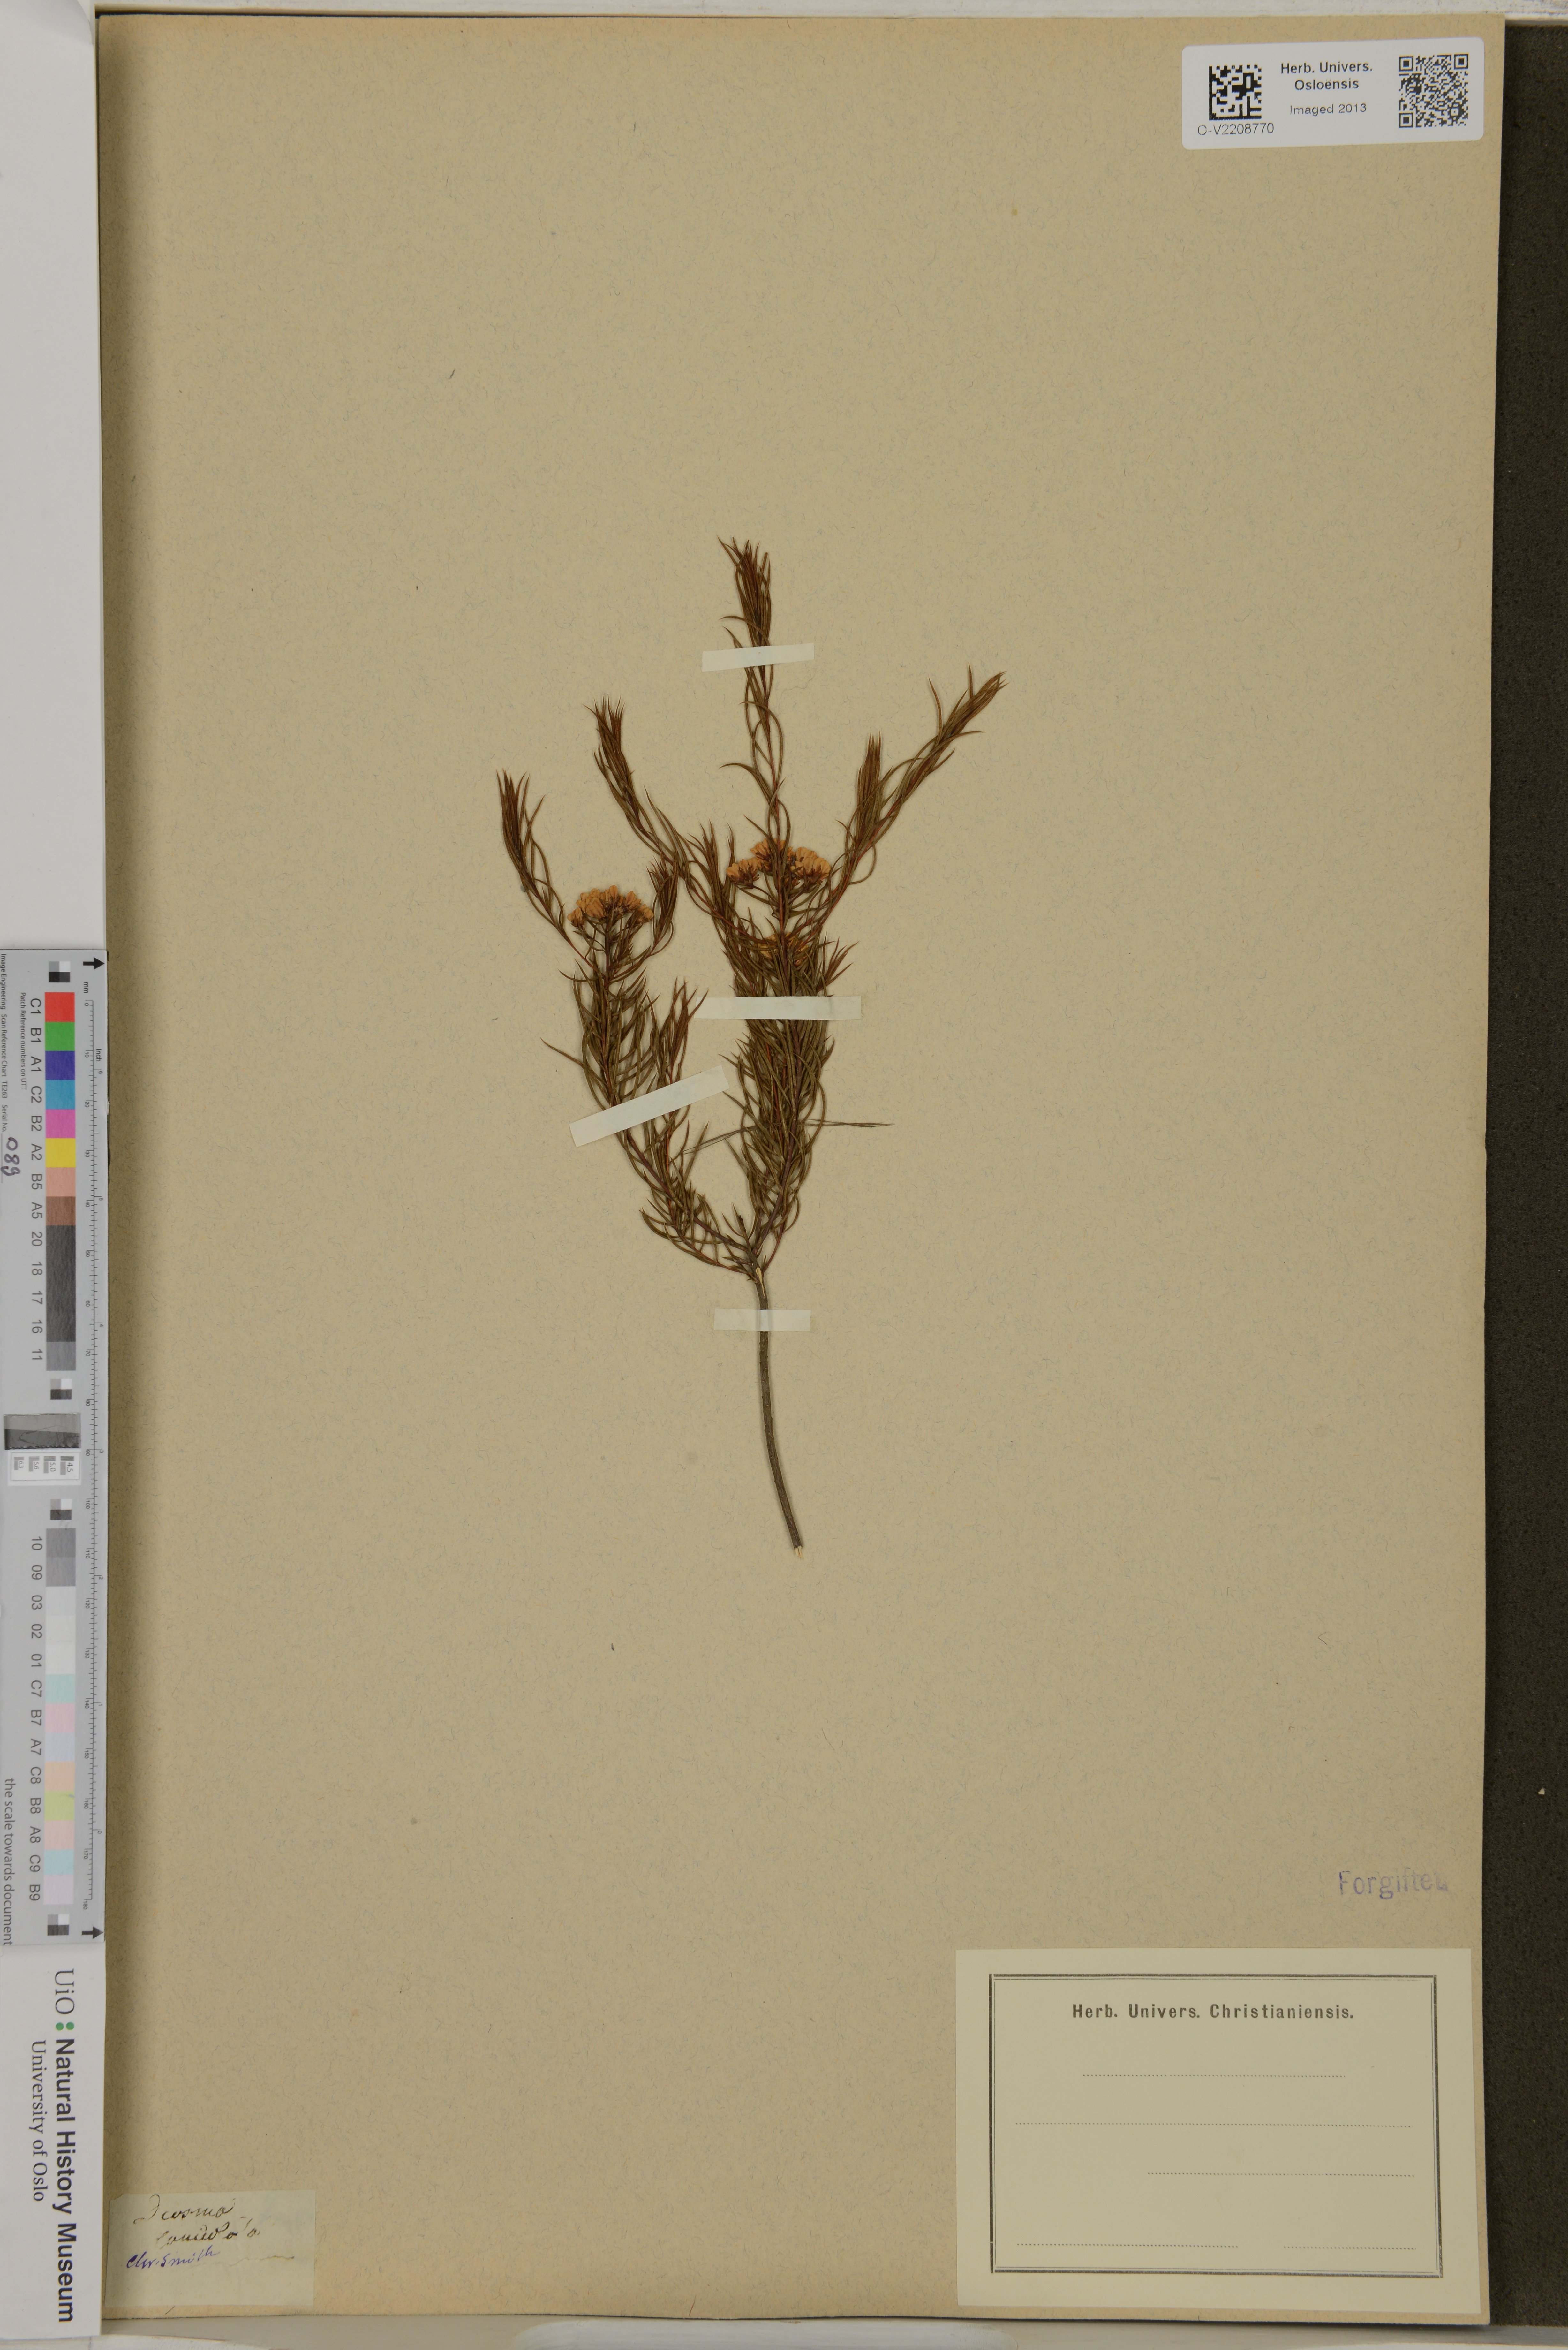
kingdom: Plantae
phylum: Tracheophyta
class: Magnoliopsida
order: Sapindales
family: Rutaceae
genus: Diosma
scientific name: Diosma
